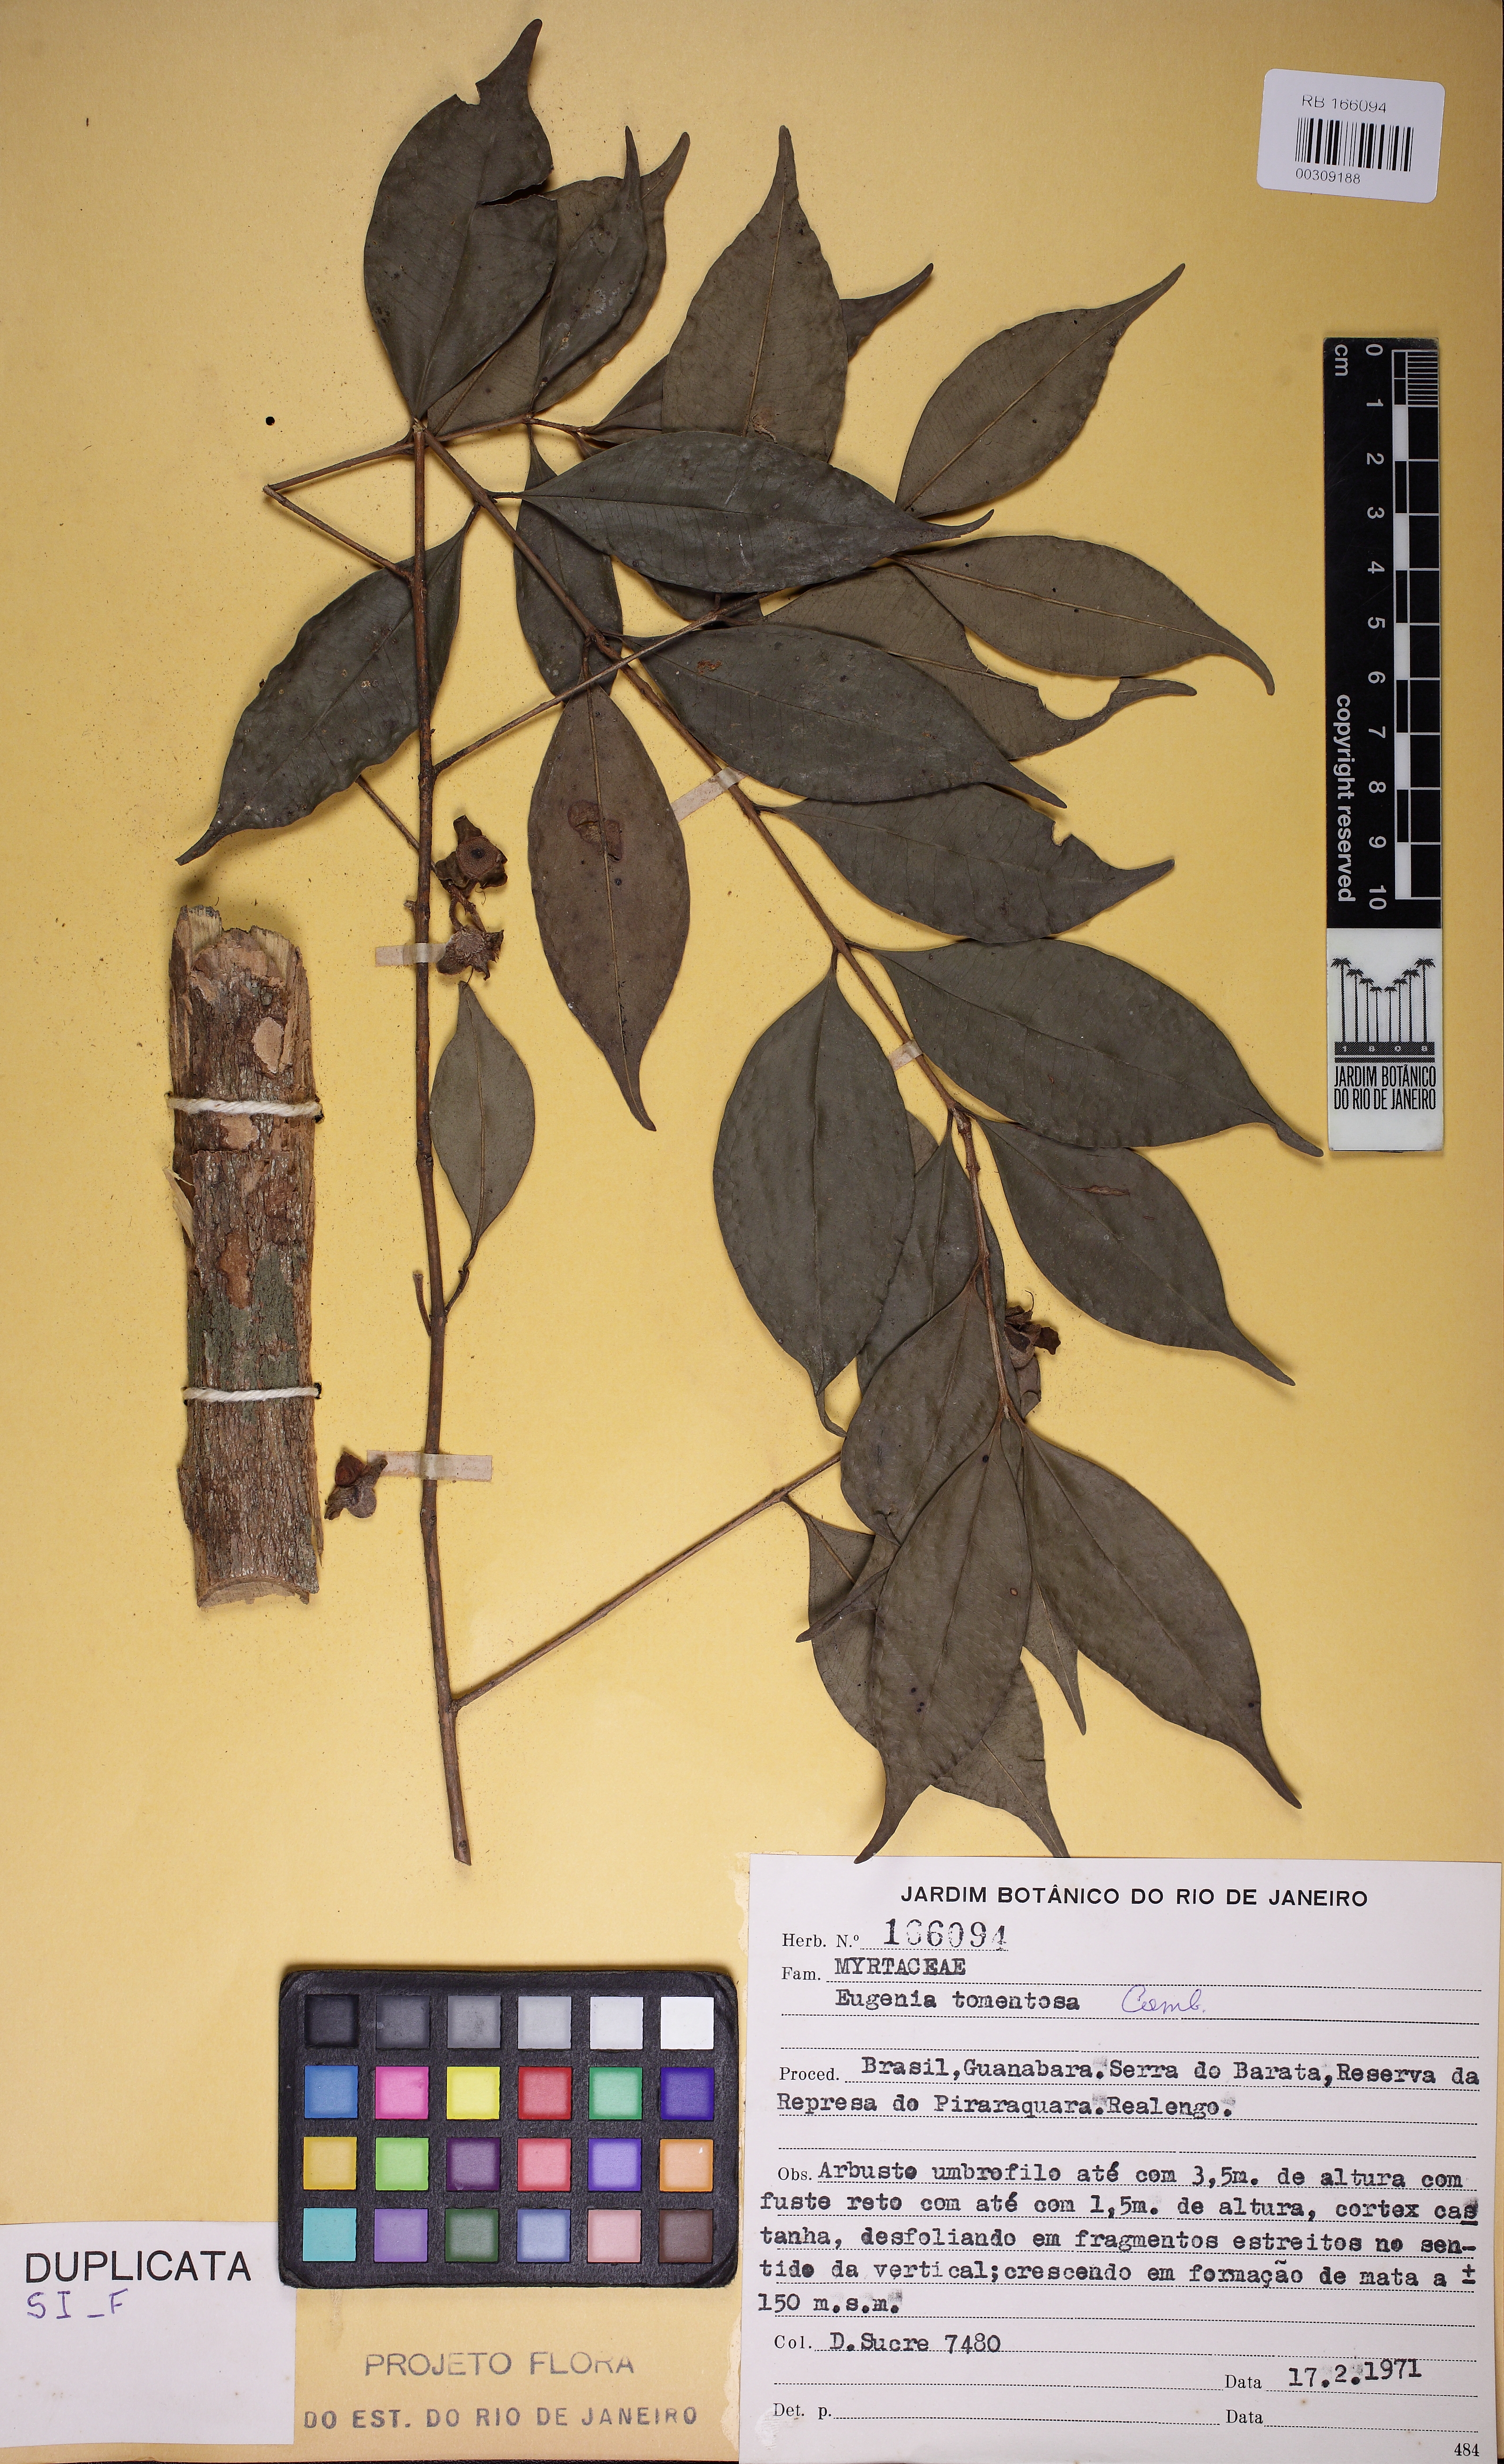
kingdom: Plantae
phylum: Tracheophyta
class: Magnoliopsida
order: Myrtales
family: Myrtaceae
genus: Myrcia
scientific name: Myrcia tomentosa
